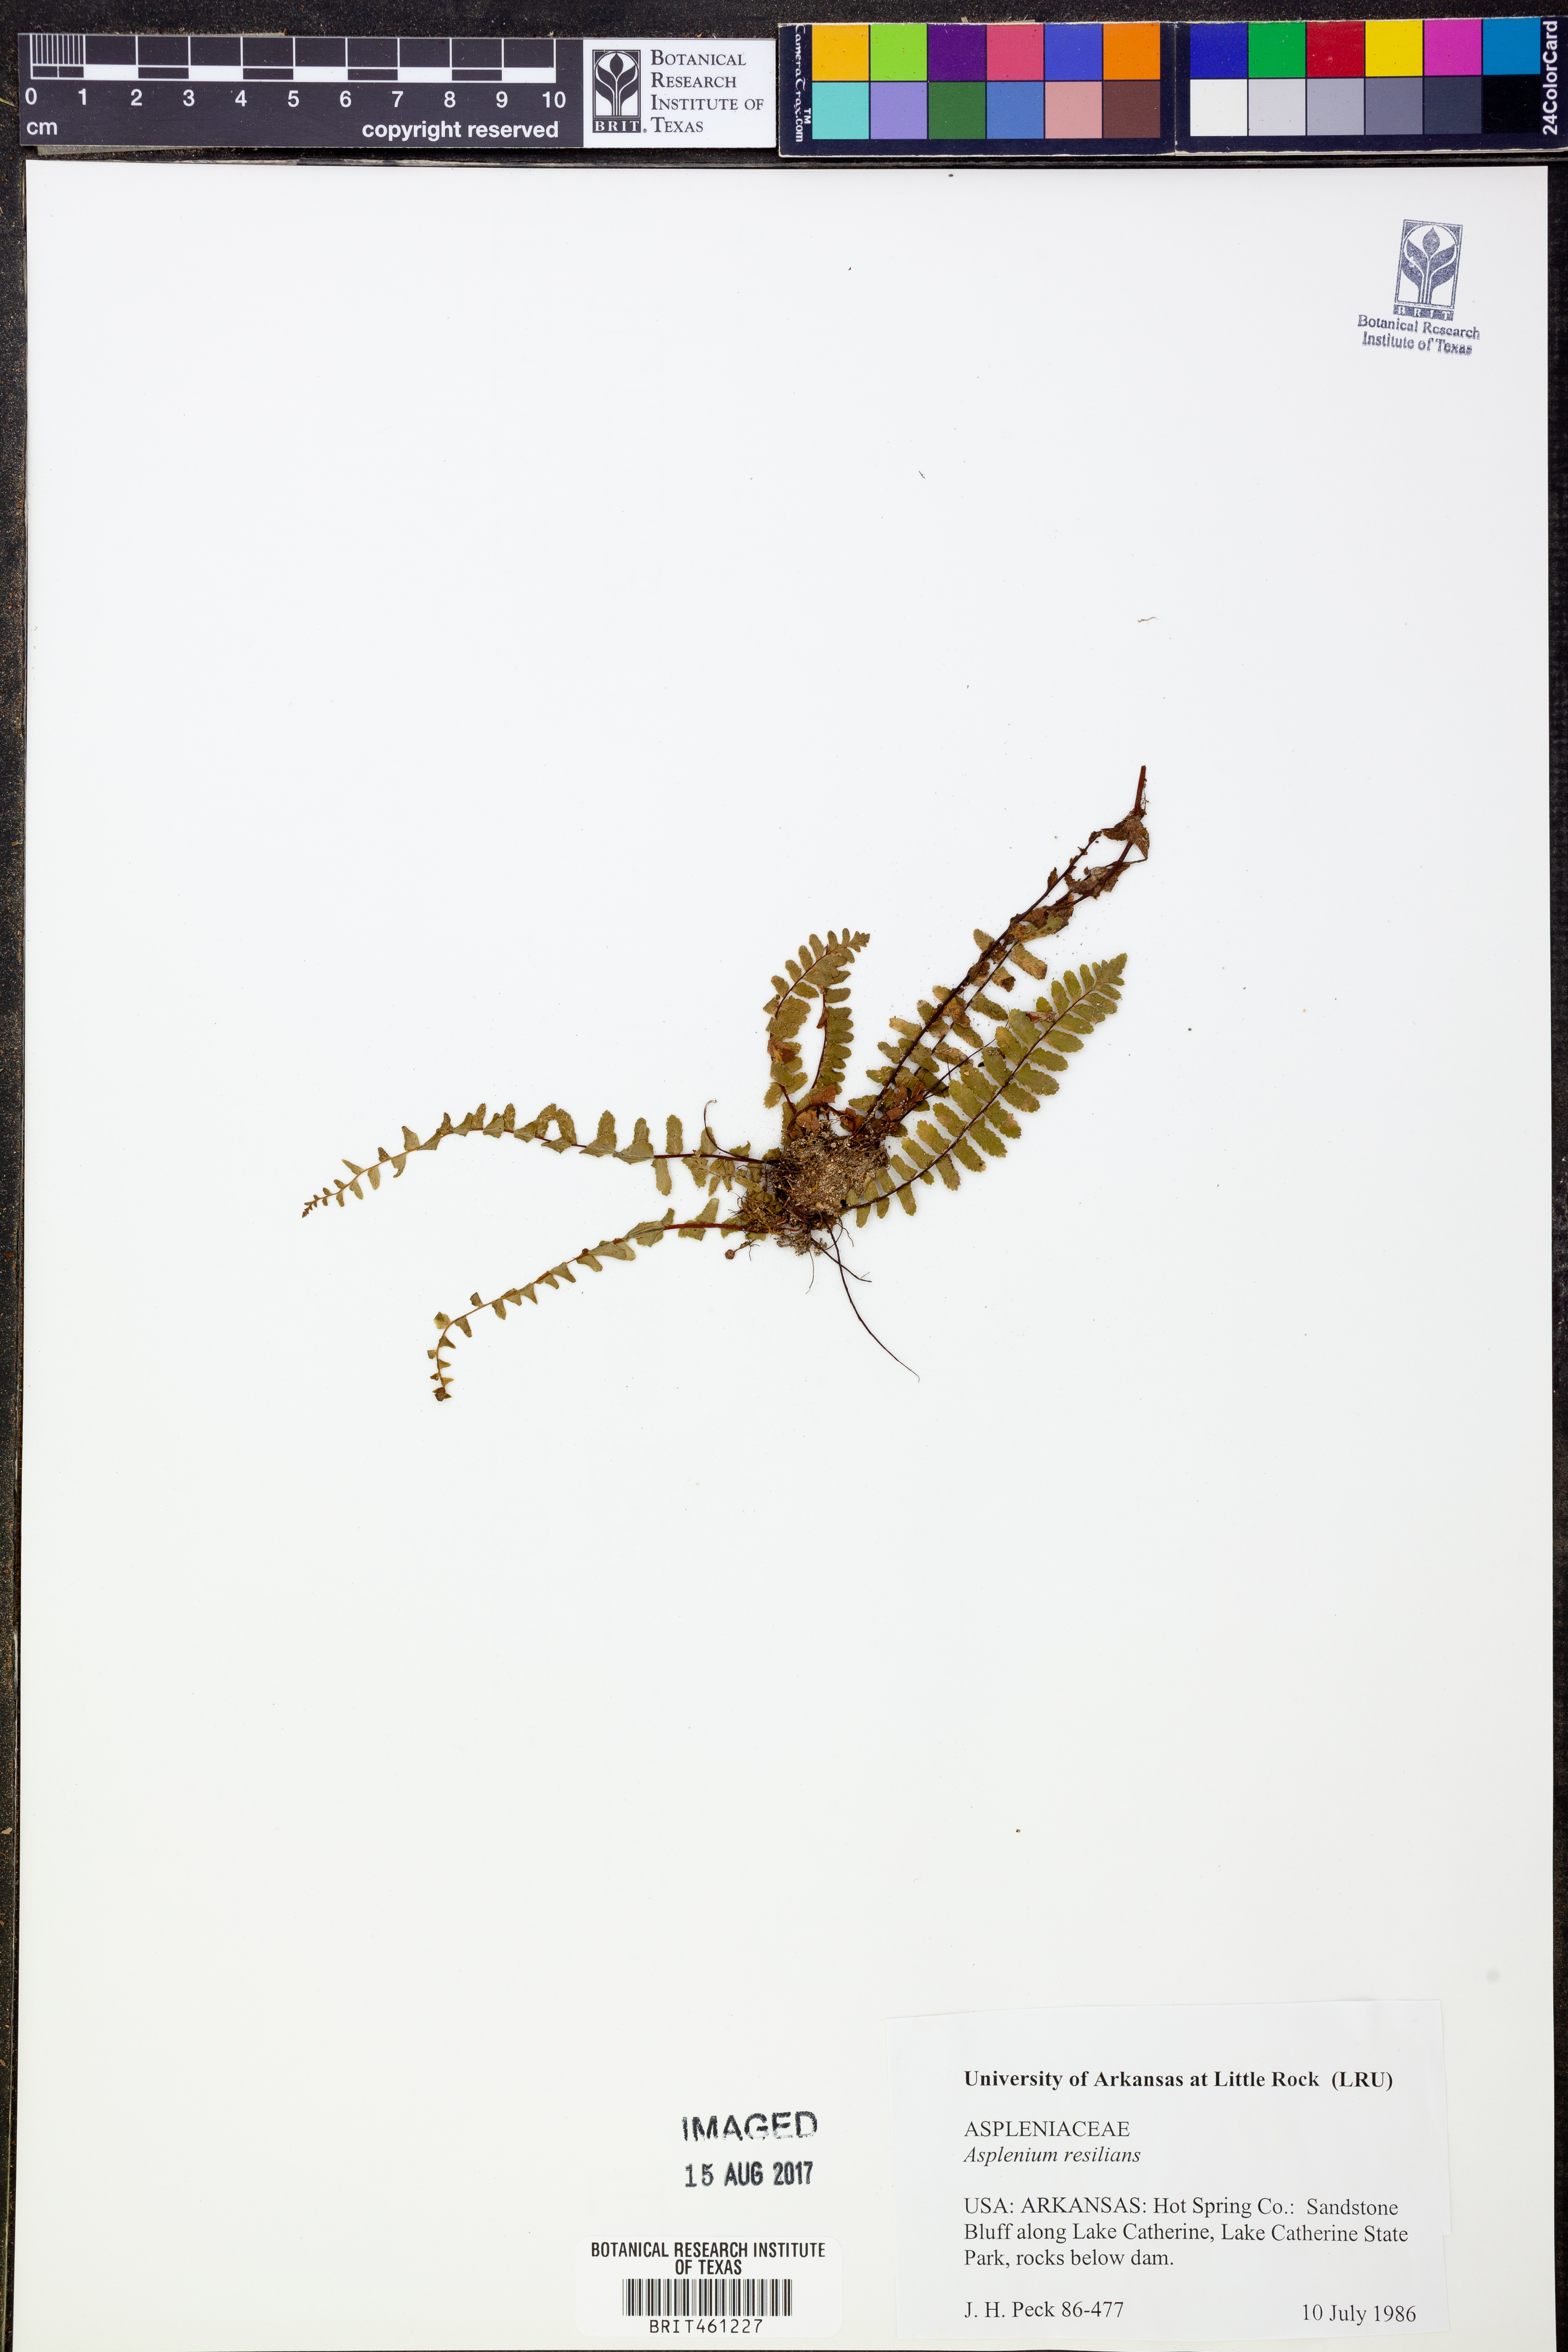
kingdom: Plantae
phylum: Tracheophyta
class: Polypodiopsida
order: Polypodiales
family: Aspleniaceae
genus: Asplenium
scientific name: Asplenium resiliens
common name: Blackstem spleenwort
